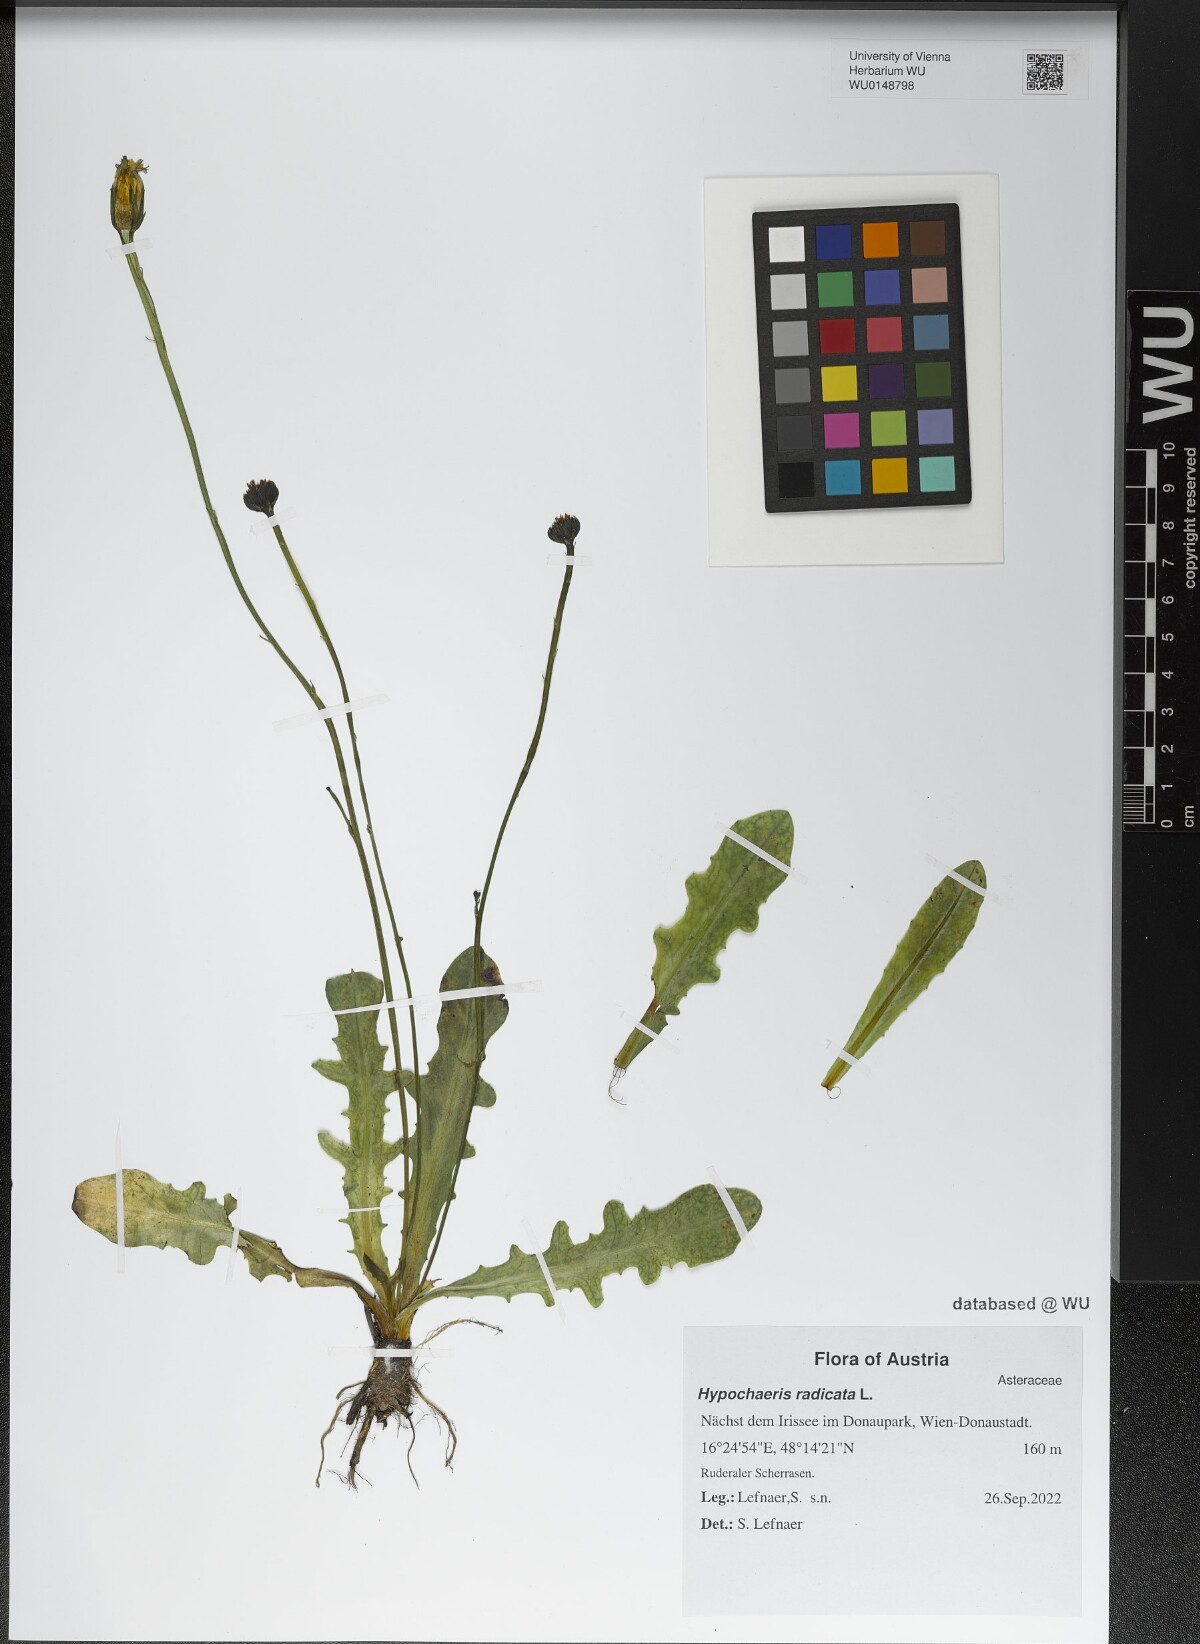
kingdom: Plantae
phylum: Tracheophyta
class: Magnoliopsida
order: Asterales
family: Asteraceae
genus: Hypochaeris
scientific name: Hypochaeris radicata
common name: Flatweed
